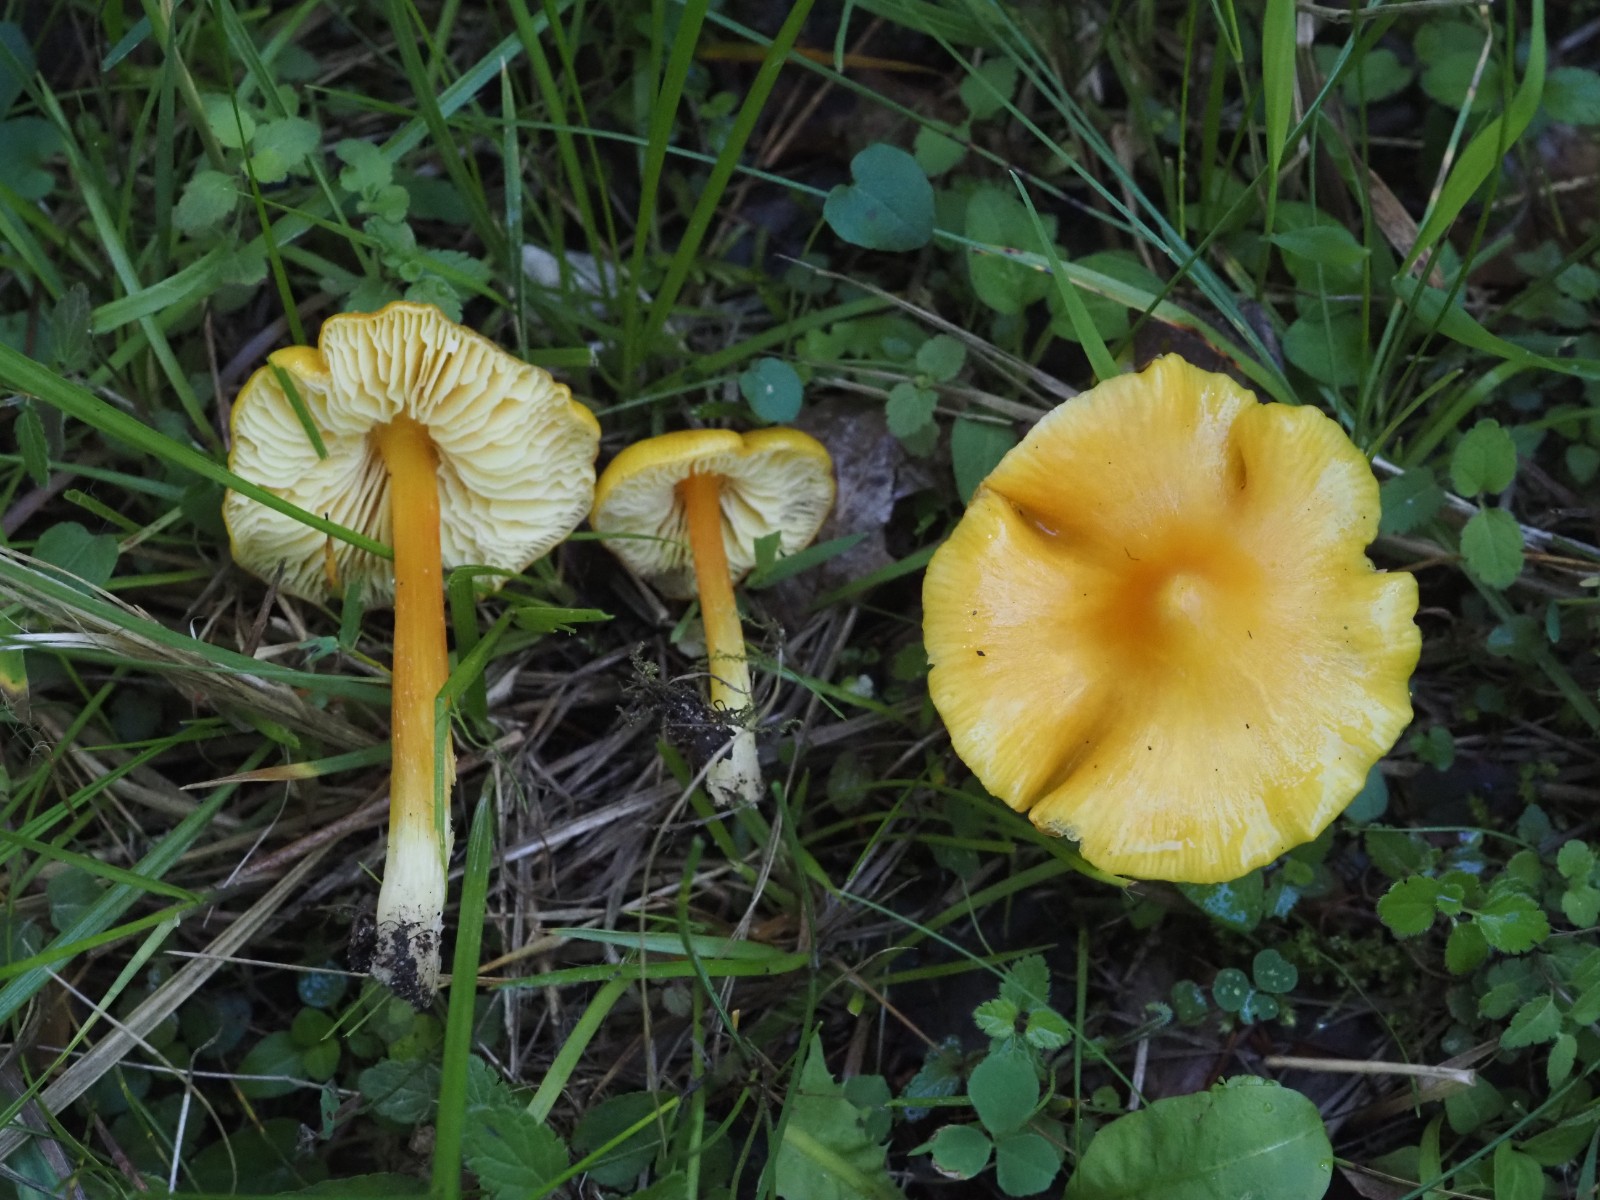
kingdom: Fungi
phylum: Basidiomycota
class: Agaricomycetes
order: Agaricales
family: Hygrophoraceae
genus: Hygrocybe
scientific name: Hygrocybe acutoconica
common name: spidspuklet vokshat
